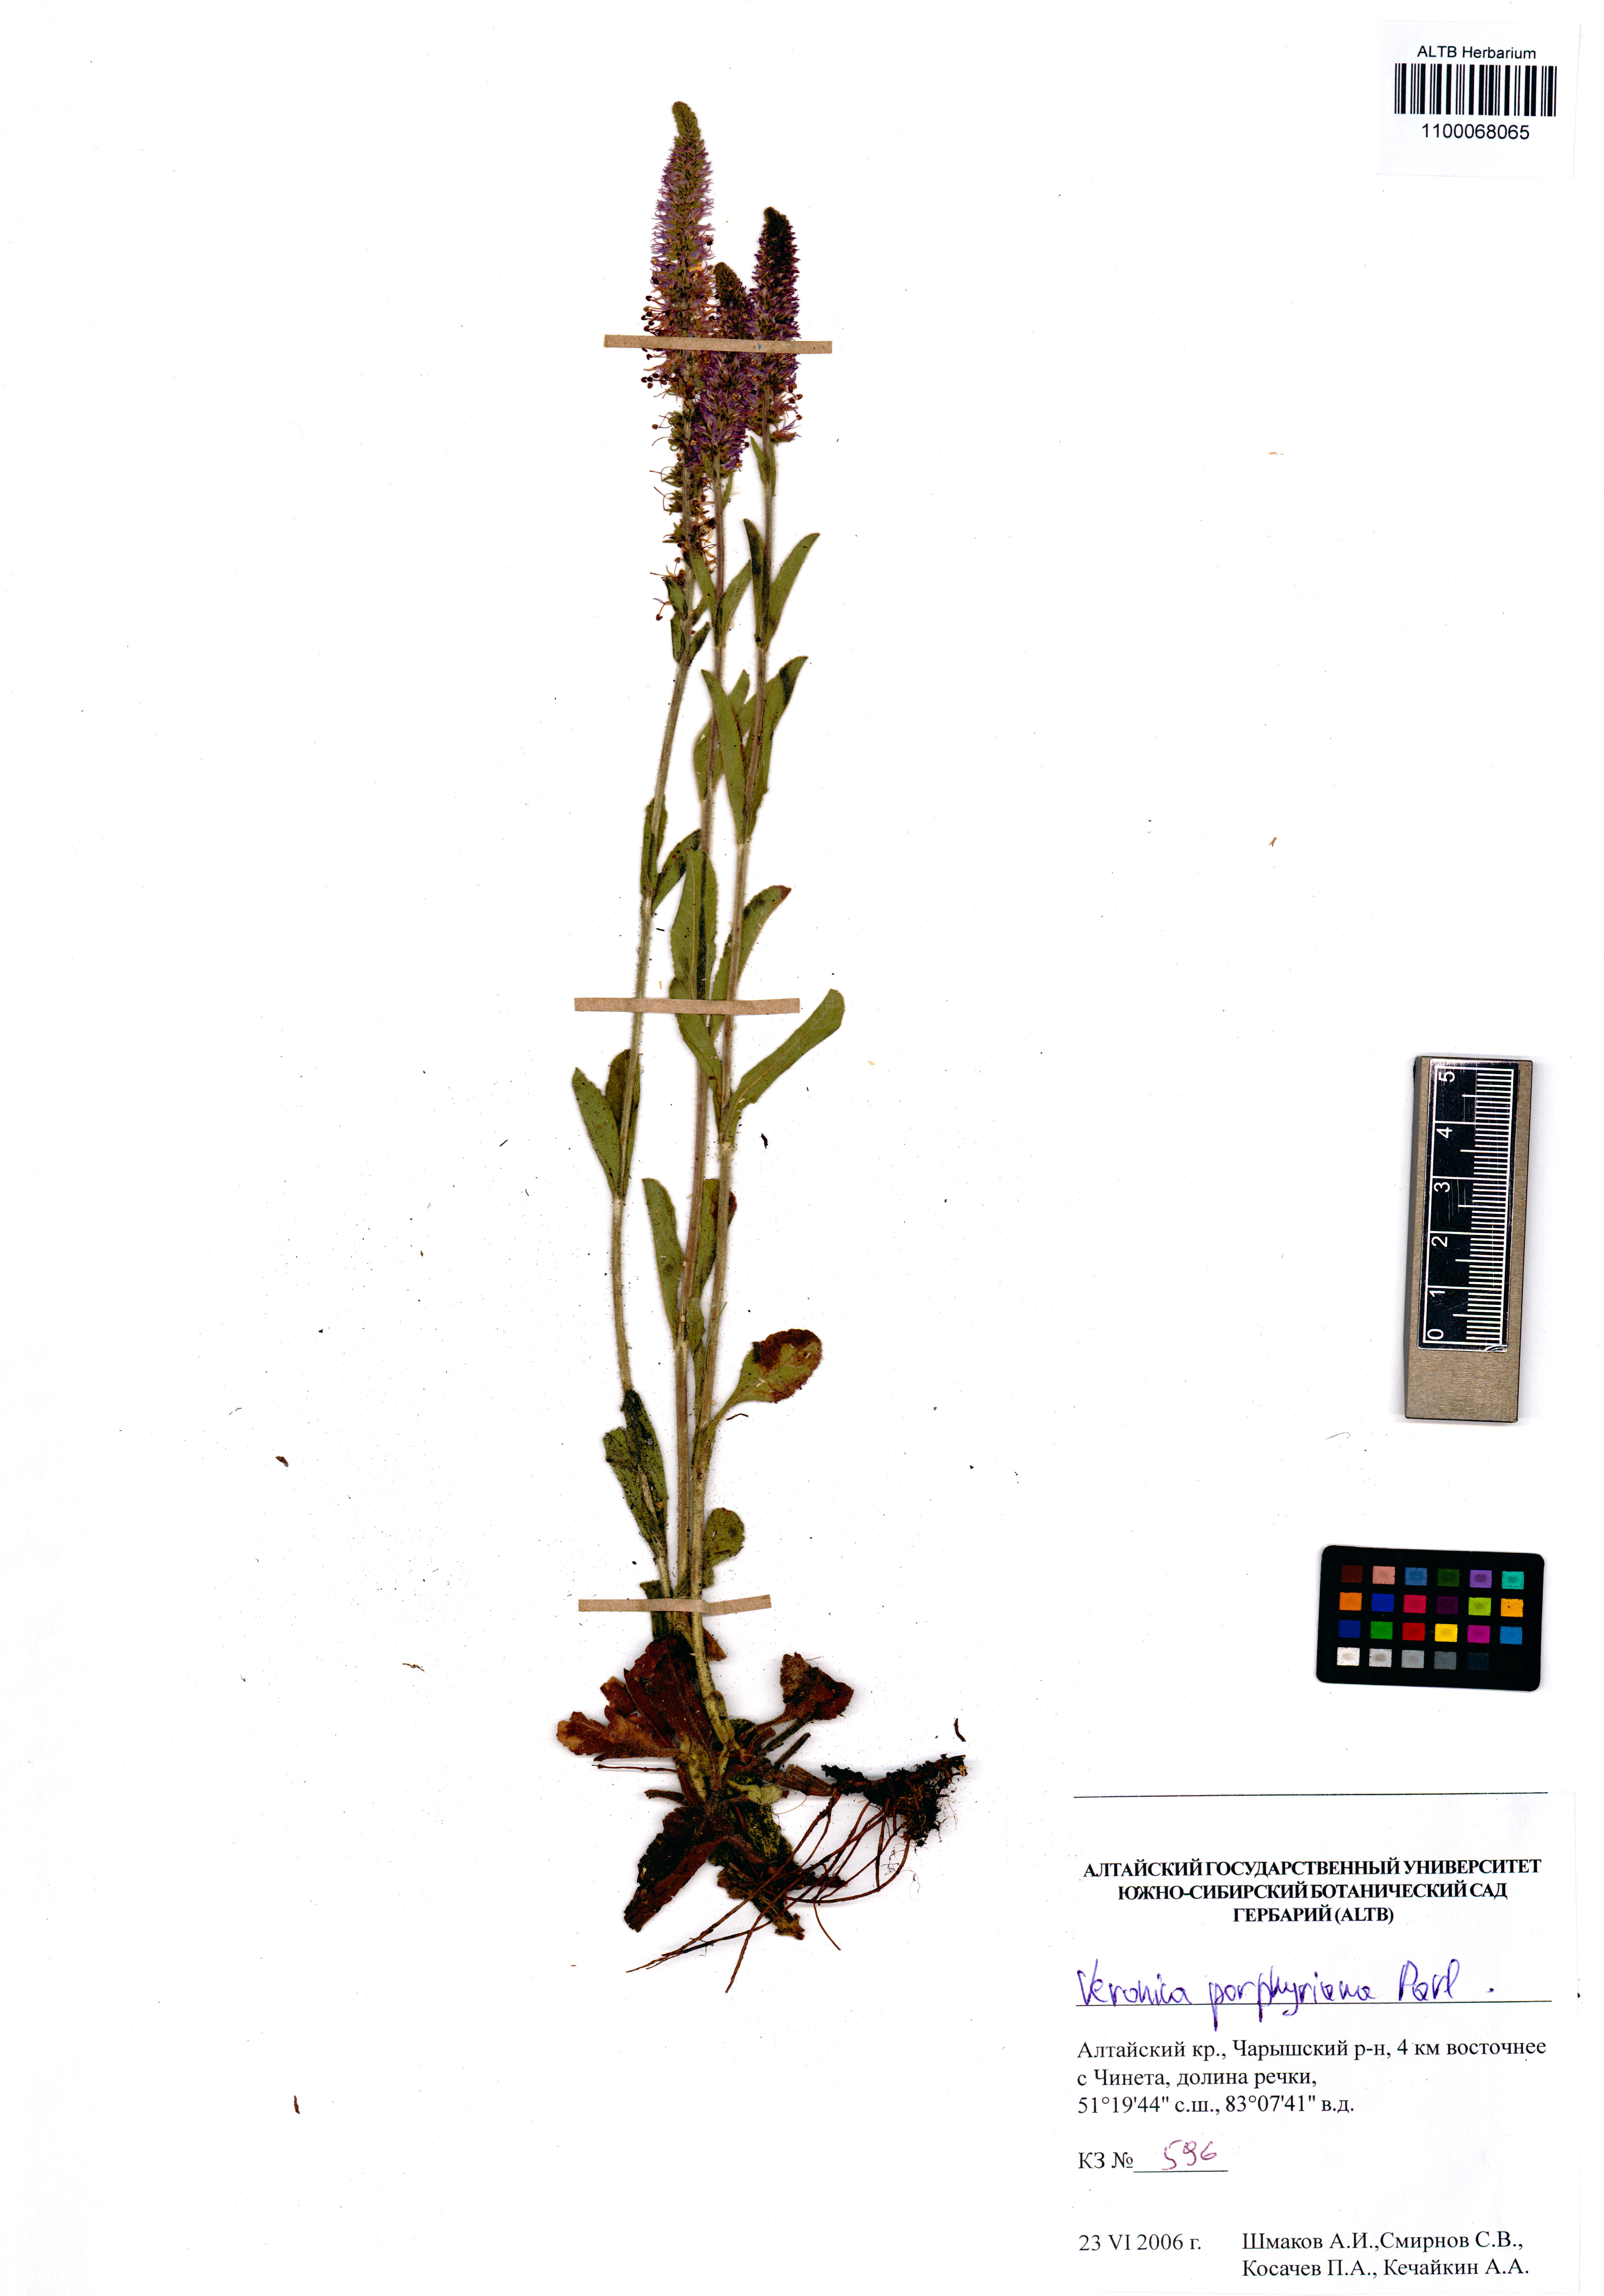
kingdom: Plantae
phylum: Tracheophyta
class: Magnoliopsida
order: Lamiales
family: Plantaginaceae
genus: Veronica
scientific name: Veronica porphyriana
